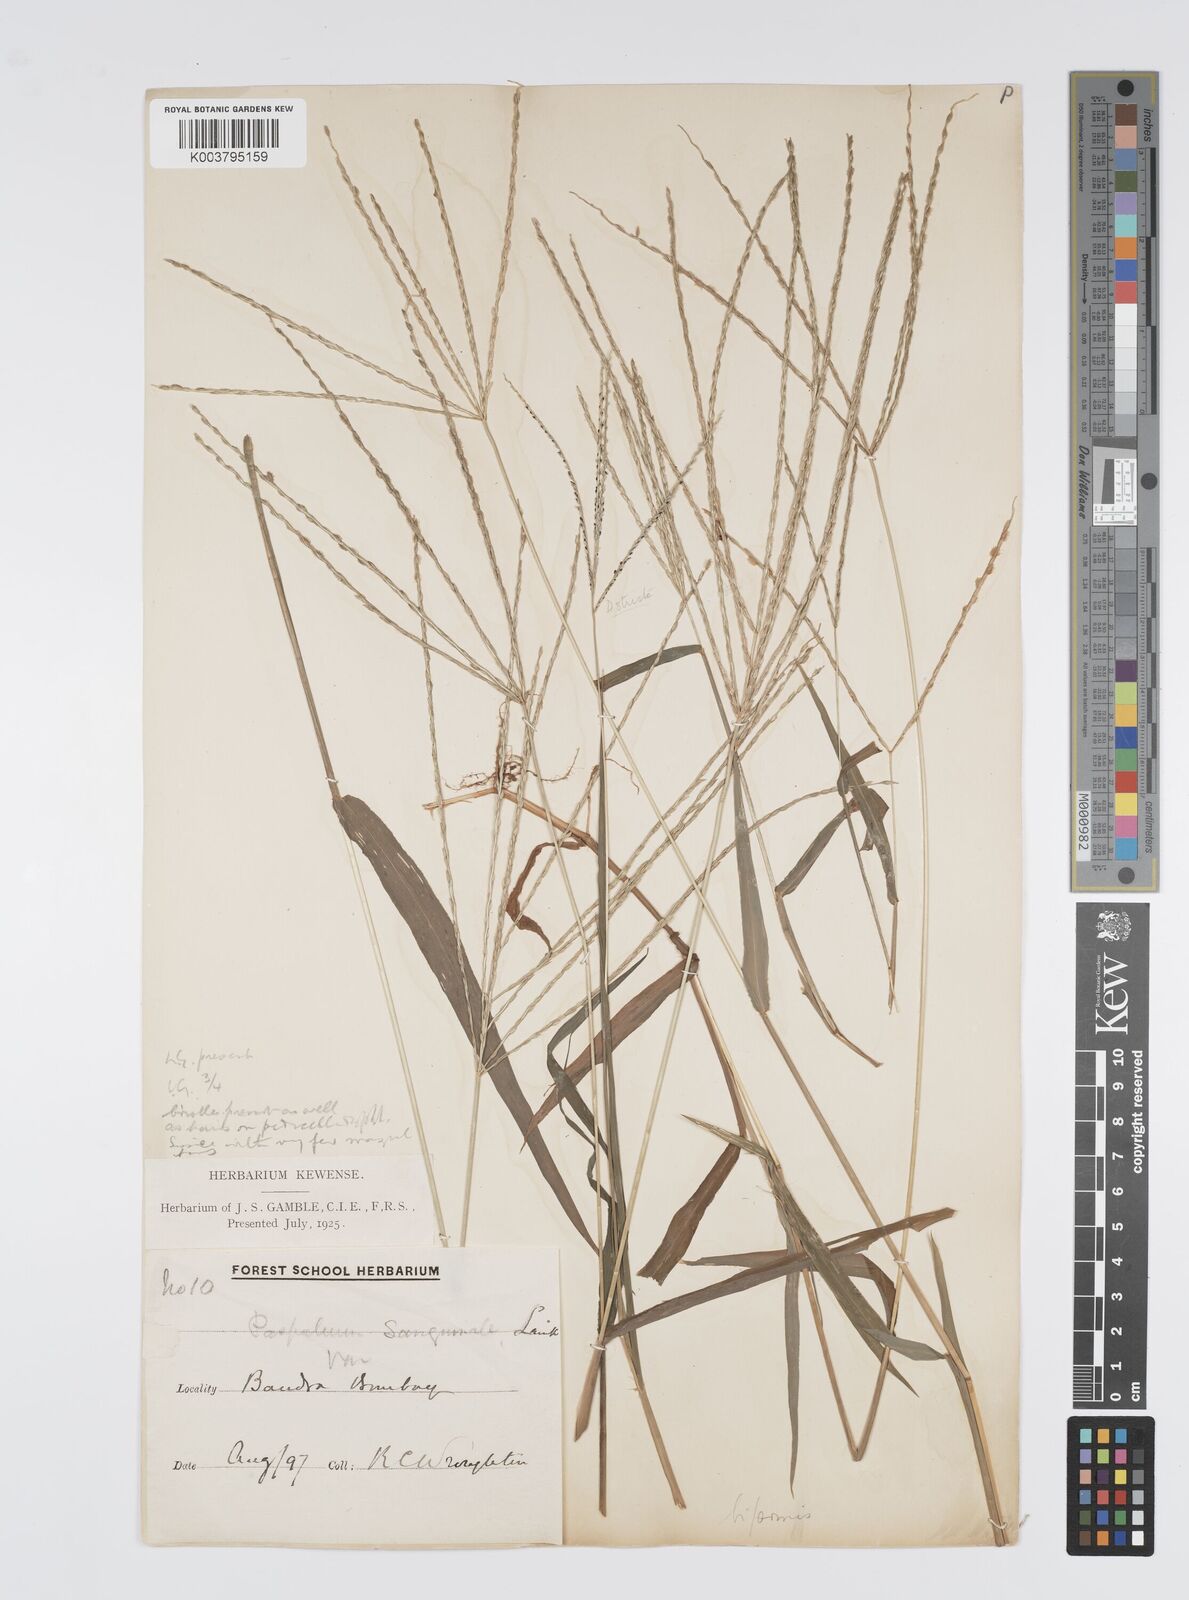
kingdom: Plantae
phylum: Tracheophyta
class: Liliopsida
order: Poales
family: Poaceae
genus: Digitaria
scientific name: Digitaria ciliaris
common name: Tropical finger-grass
